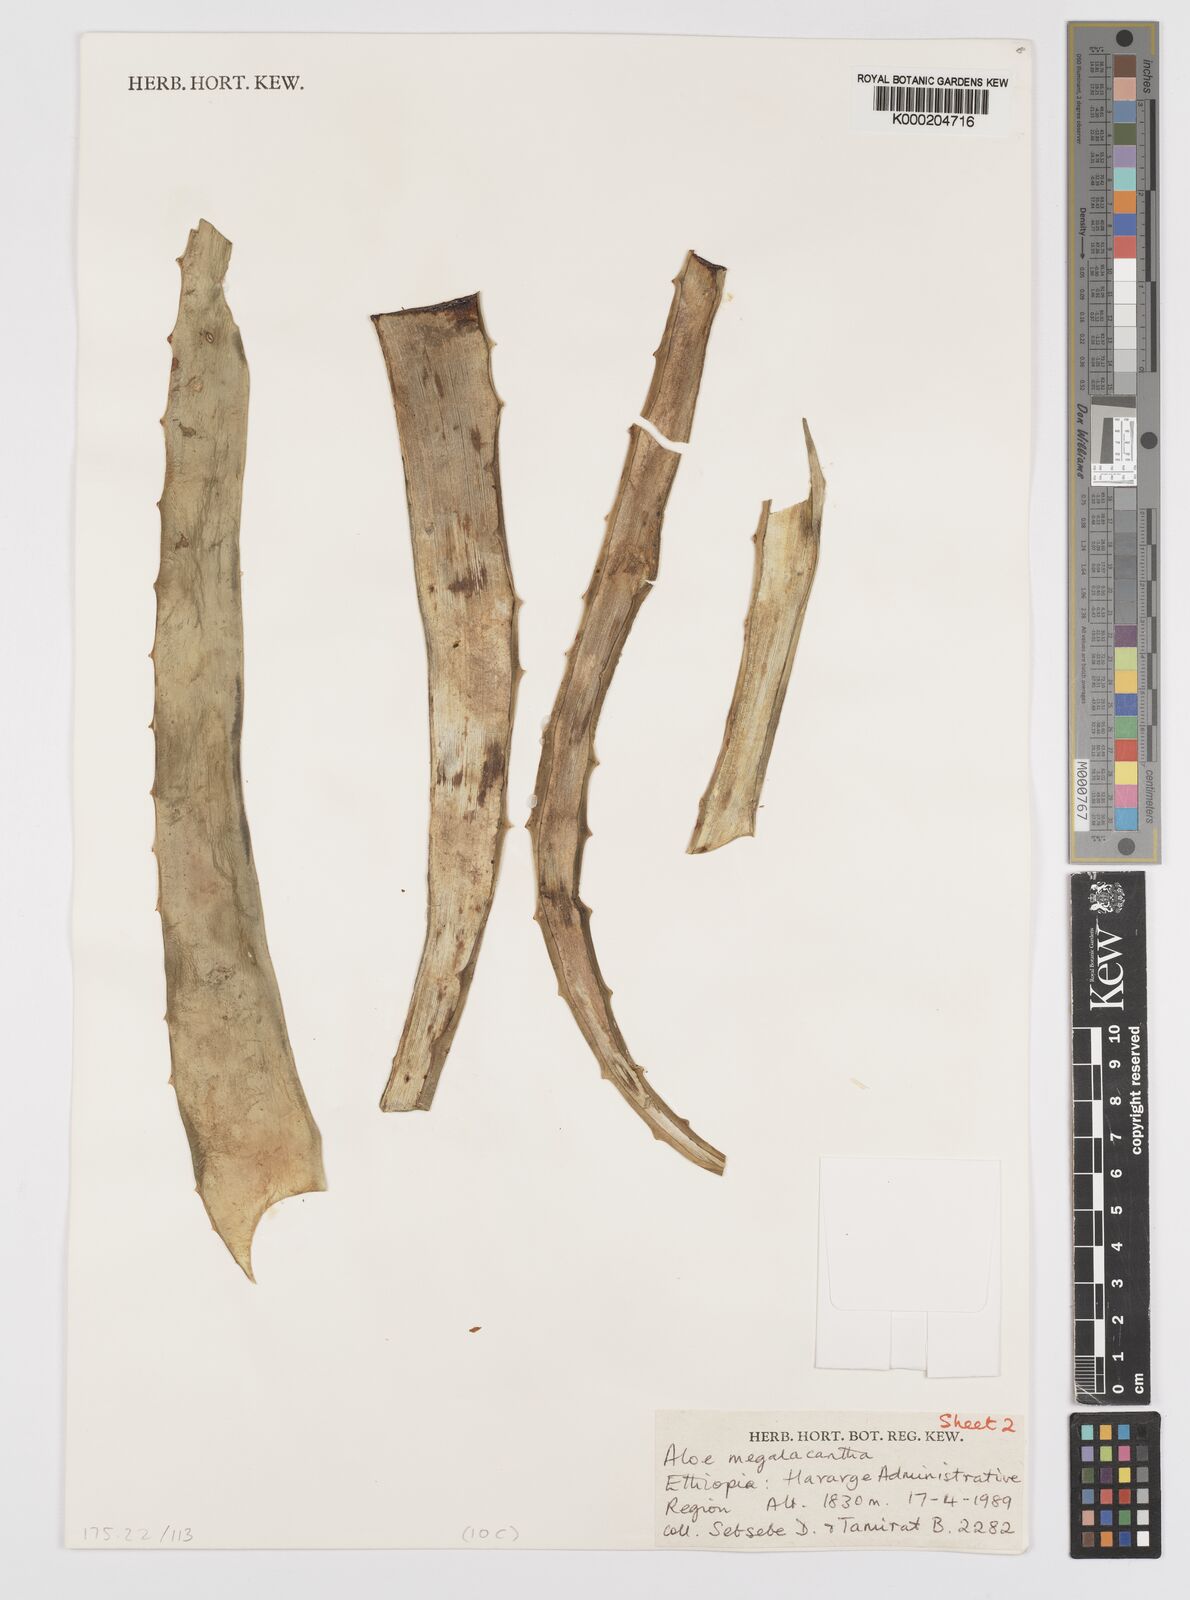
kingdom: Plantae
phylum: Tracheophyta
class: Liliopsida
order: Asparagales
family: Asphodelaceae
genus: Aloe
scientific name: Aloe megalacantha
